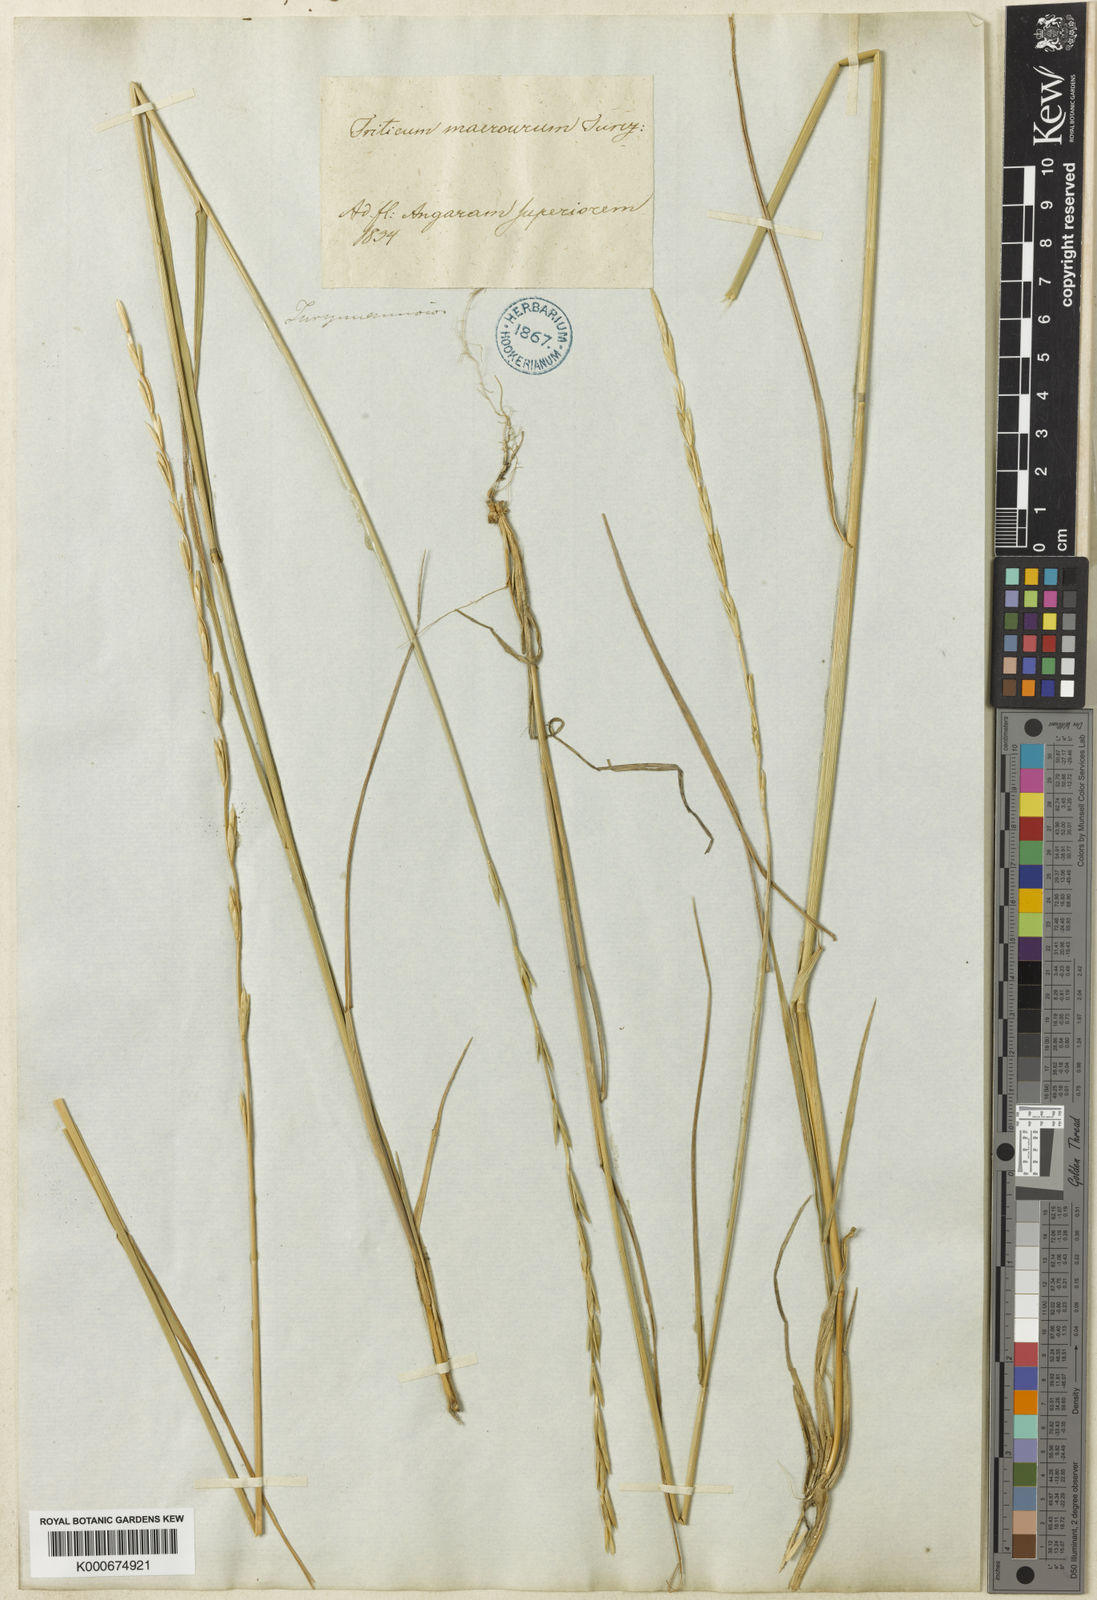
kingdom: Plantae
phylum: Tracheophyta
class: Liliopsida
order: Poales
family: Poaceae
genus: Elymus
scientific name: Elymus macrourus
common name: Northern wheatgrass
